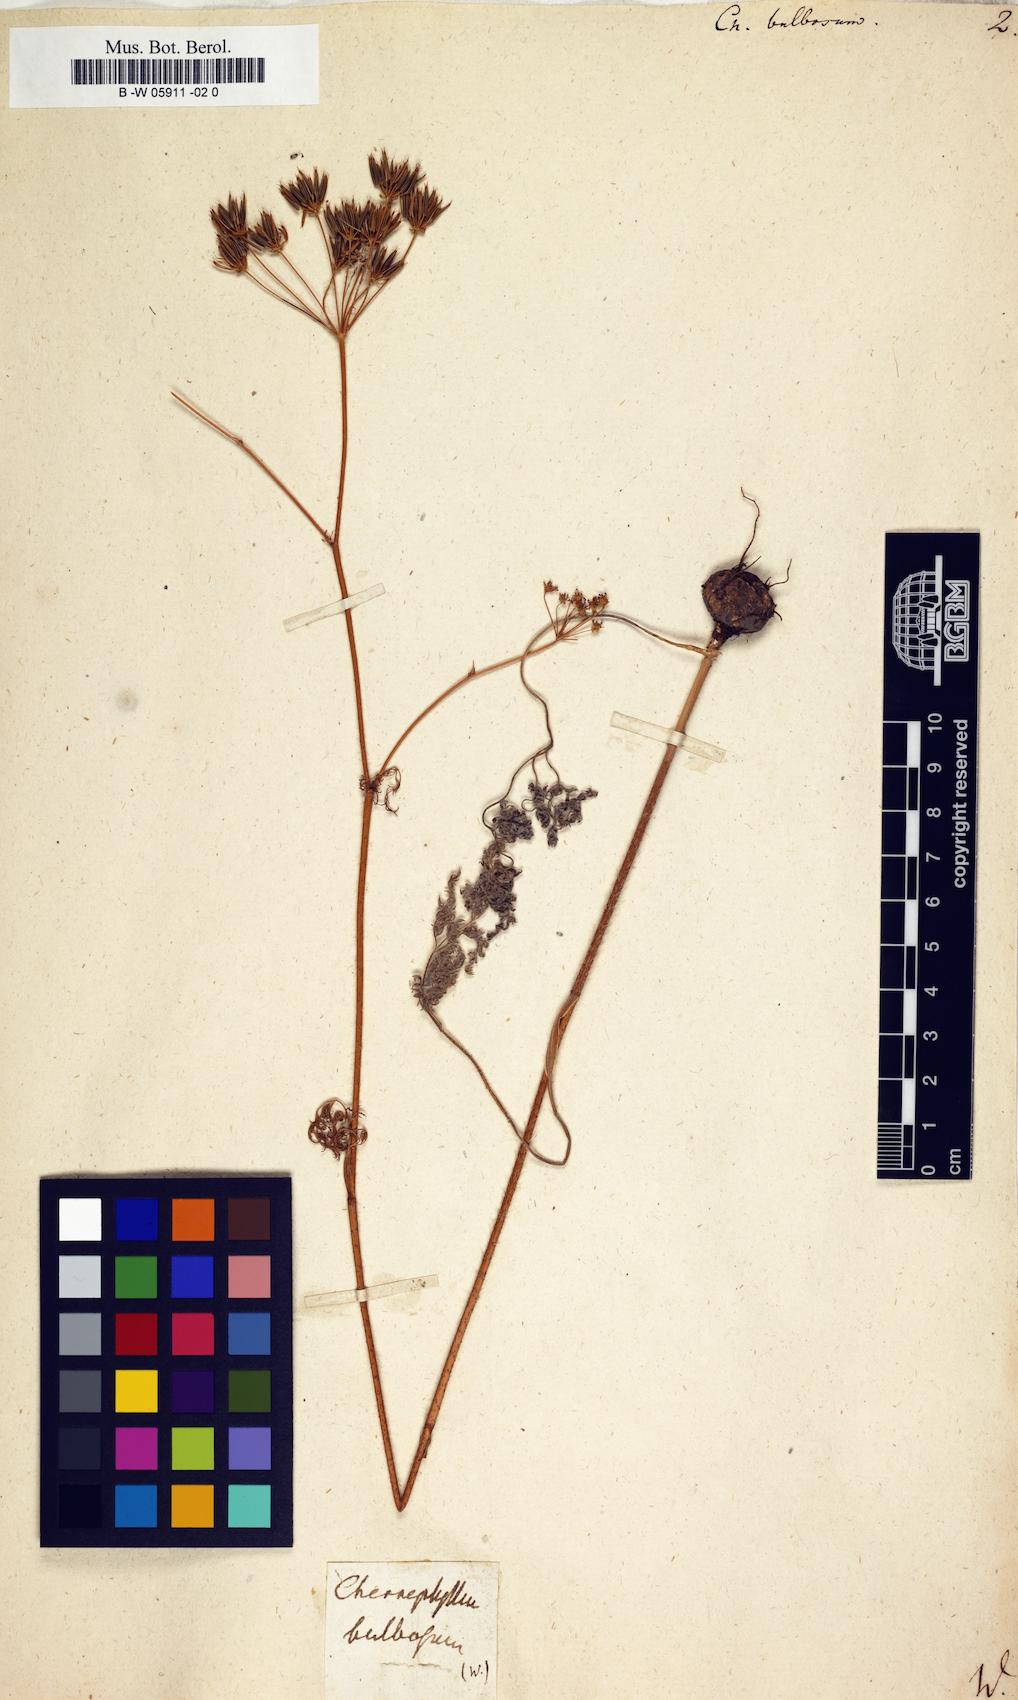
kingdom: Plantae
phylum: Tracheophyta
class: Magnoliopsida
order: Apiales
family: Apiaceae
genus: Chaerophyllum
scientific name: Chaerophyllum bulbosum
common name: Bulbous chervil
